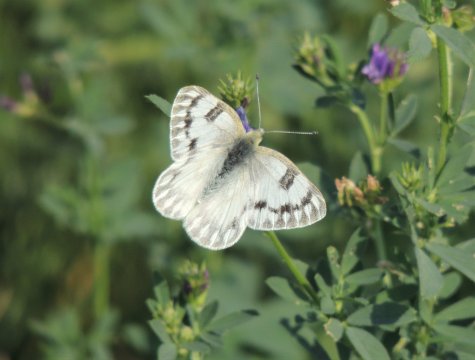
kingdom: Animalia
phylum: Arthropoda
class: Insecta
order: Lepidoptera
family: Pieridae
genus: Pontia
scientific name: Pontia occidentalis
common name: Western White
